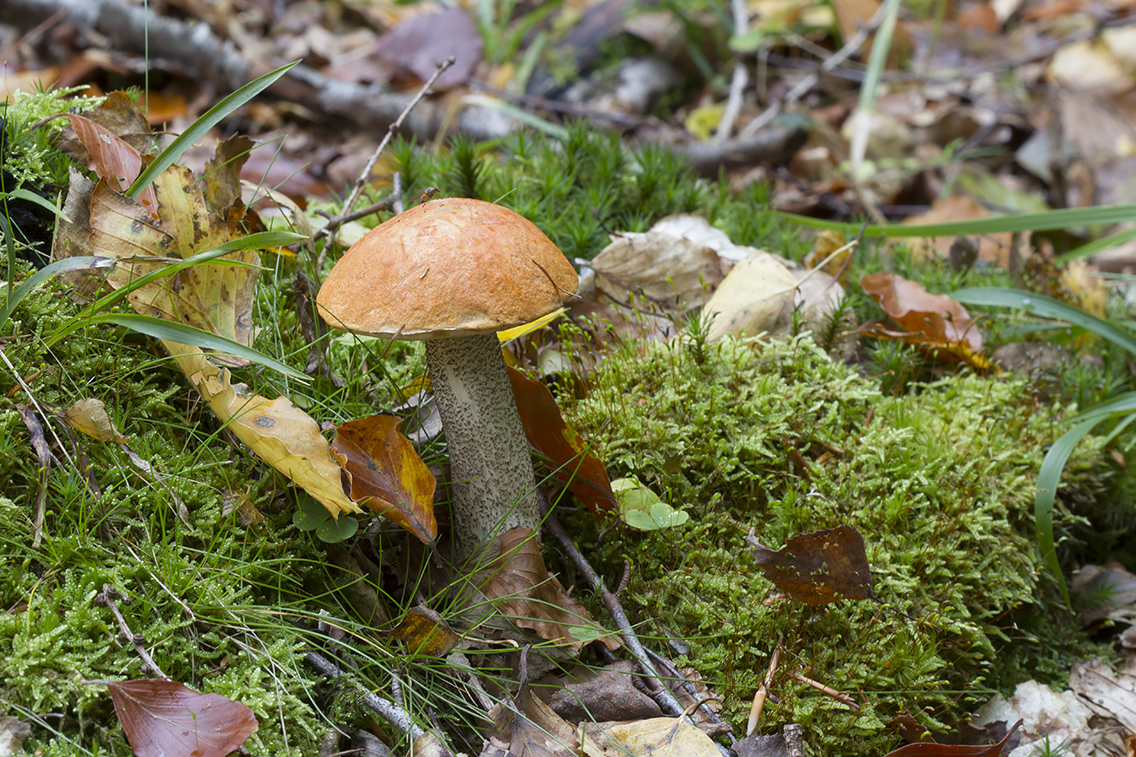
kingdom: Fungi
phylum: Basidiomycota
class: Agaricomycetes
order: Boletales
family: Boletaceae
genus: Leccinum
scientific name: Leccinum versipelle
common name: orange skælrørhat
